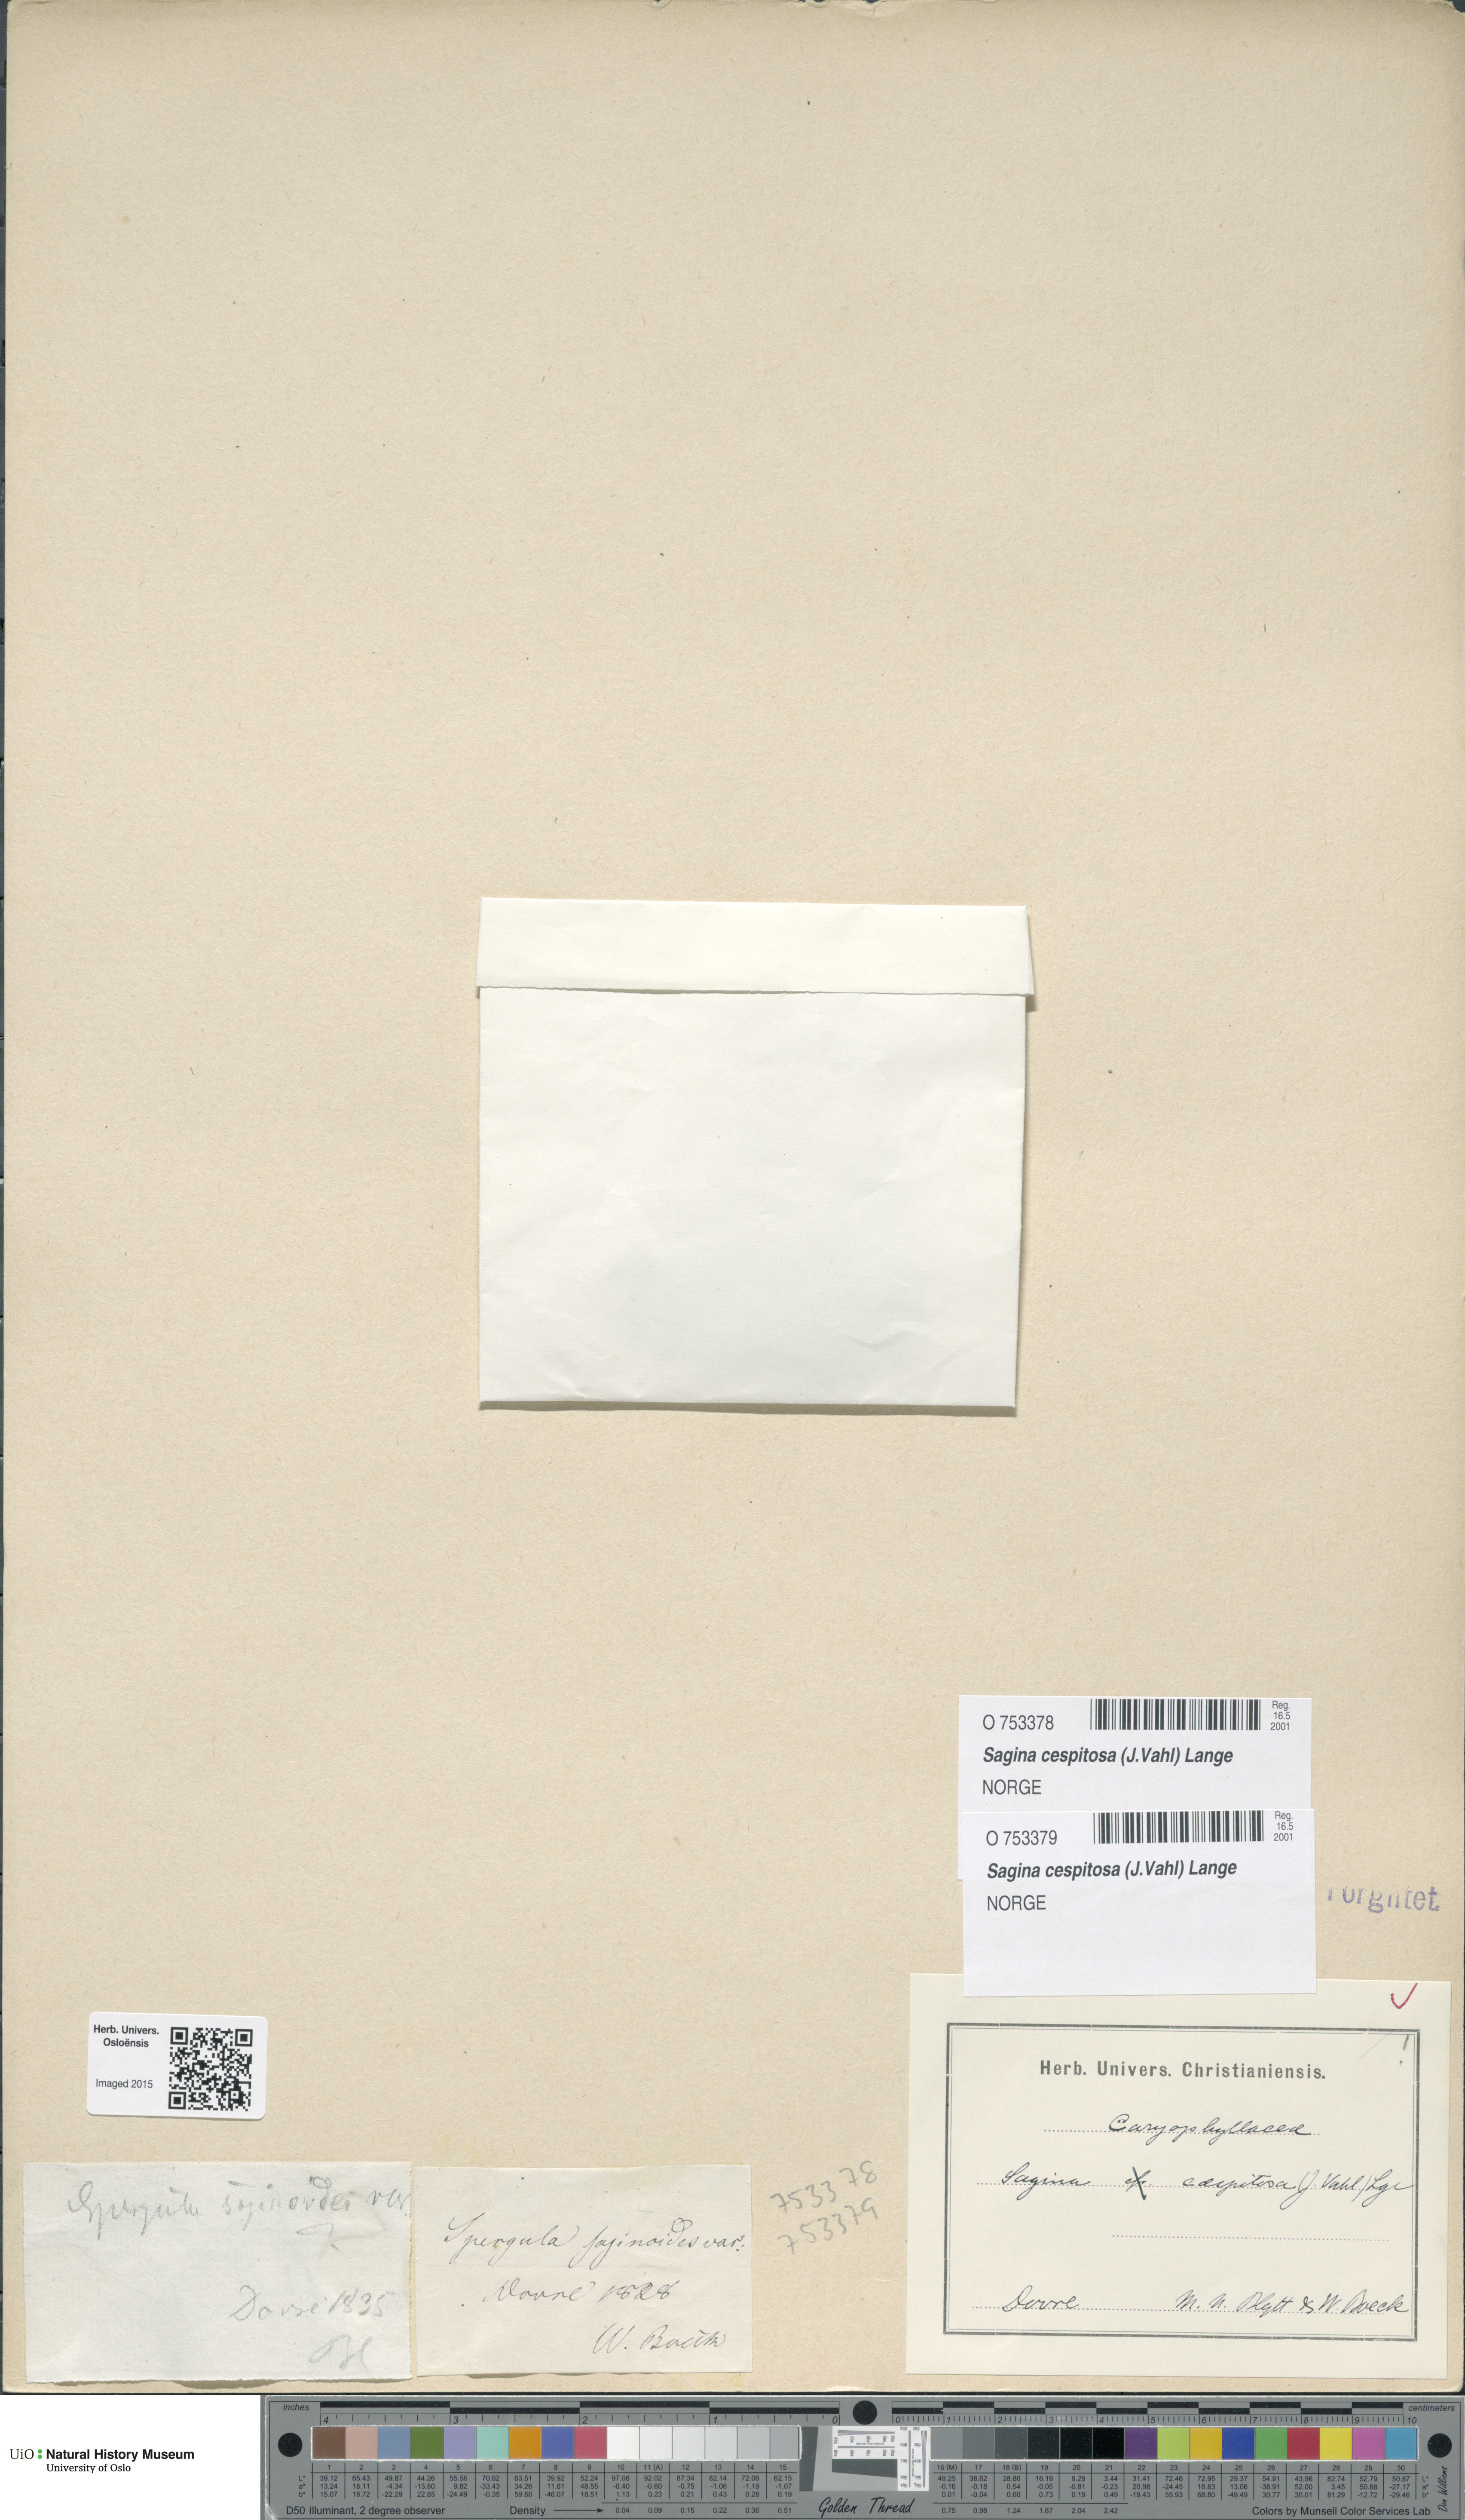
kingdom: Plantae
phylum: Tracheophyta
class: Magnoliopsida
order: Caryophyllales
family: Caryophyllaceae
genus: Sagina
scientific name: Sagina caespitosa
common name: Tufted pearlwort
